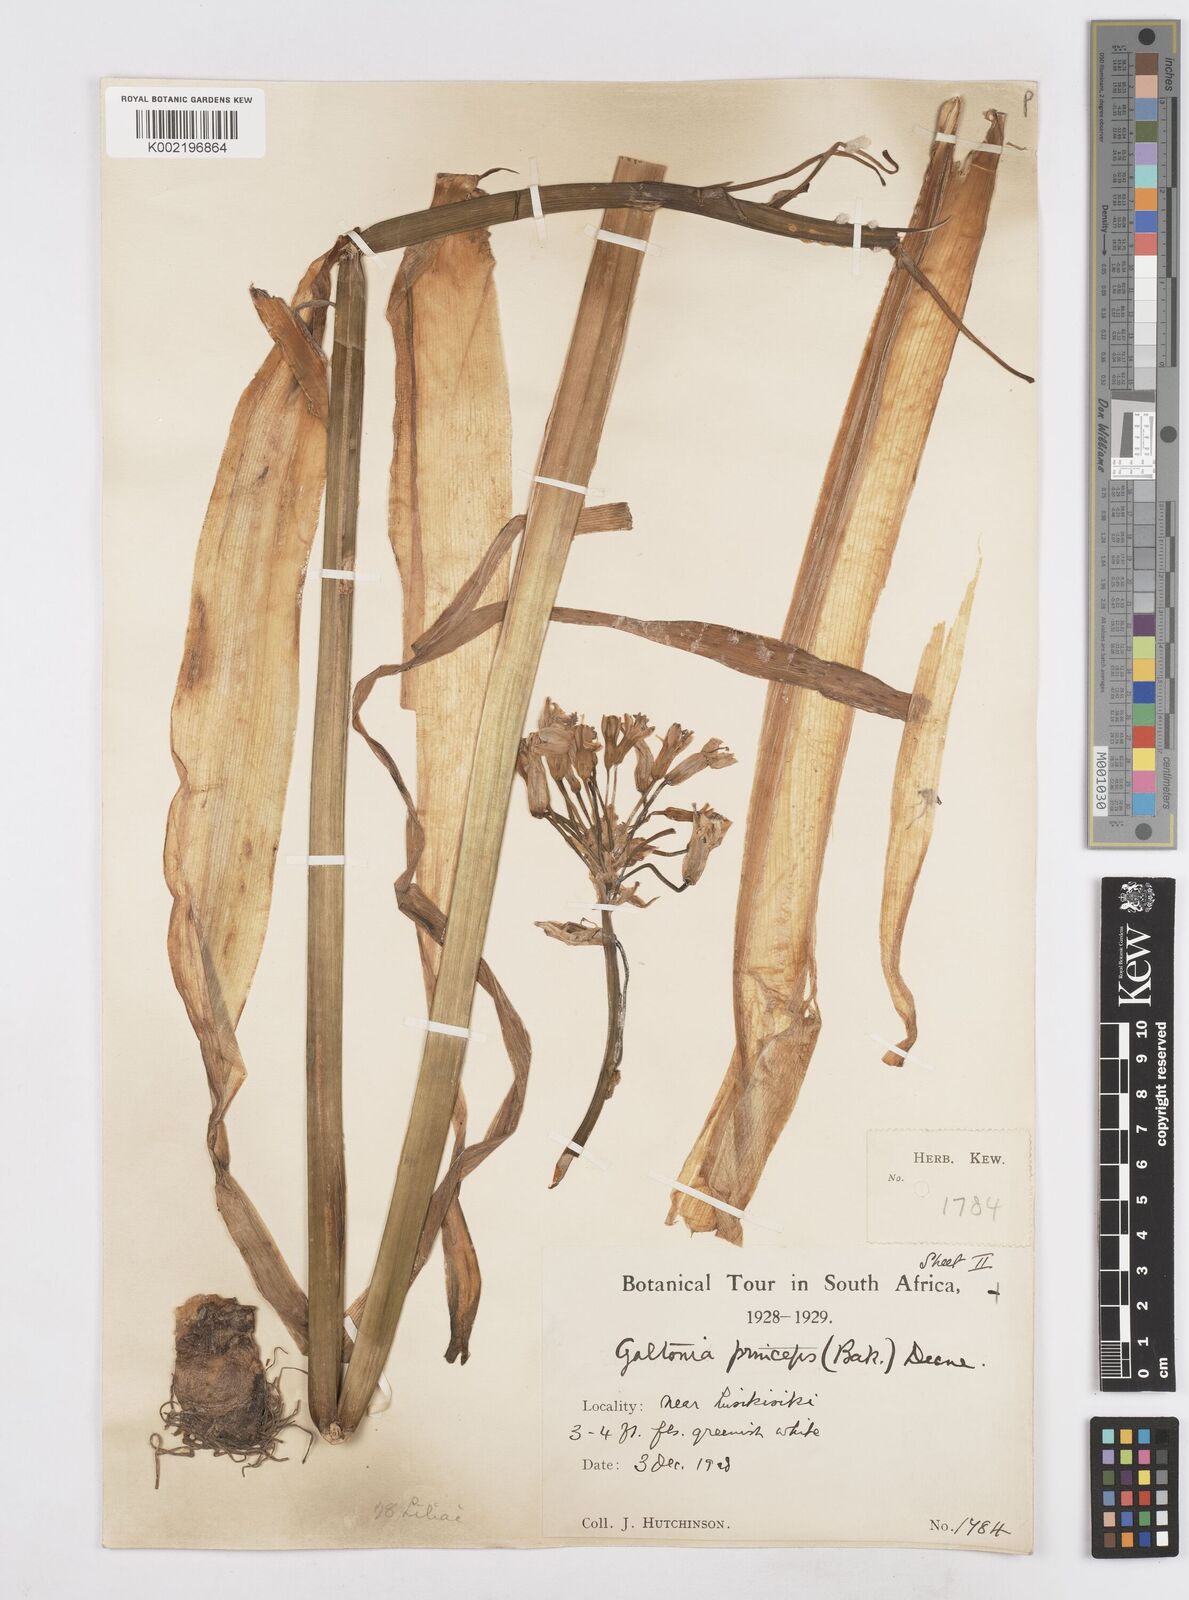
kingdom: Plantae
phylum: Tracheophyta
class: Liliopsida
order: Asparagales
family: Asparagaceae
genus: Ornithogalum
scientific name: Ornithogalum princeps
